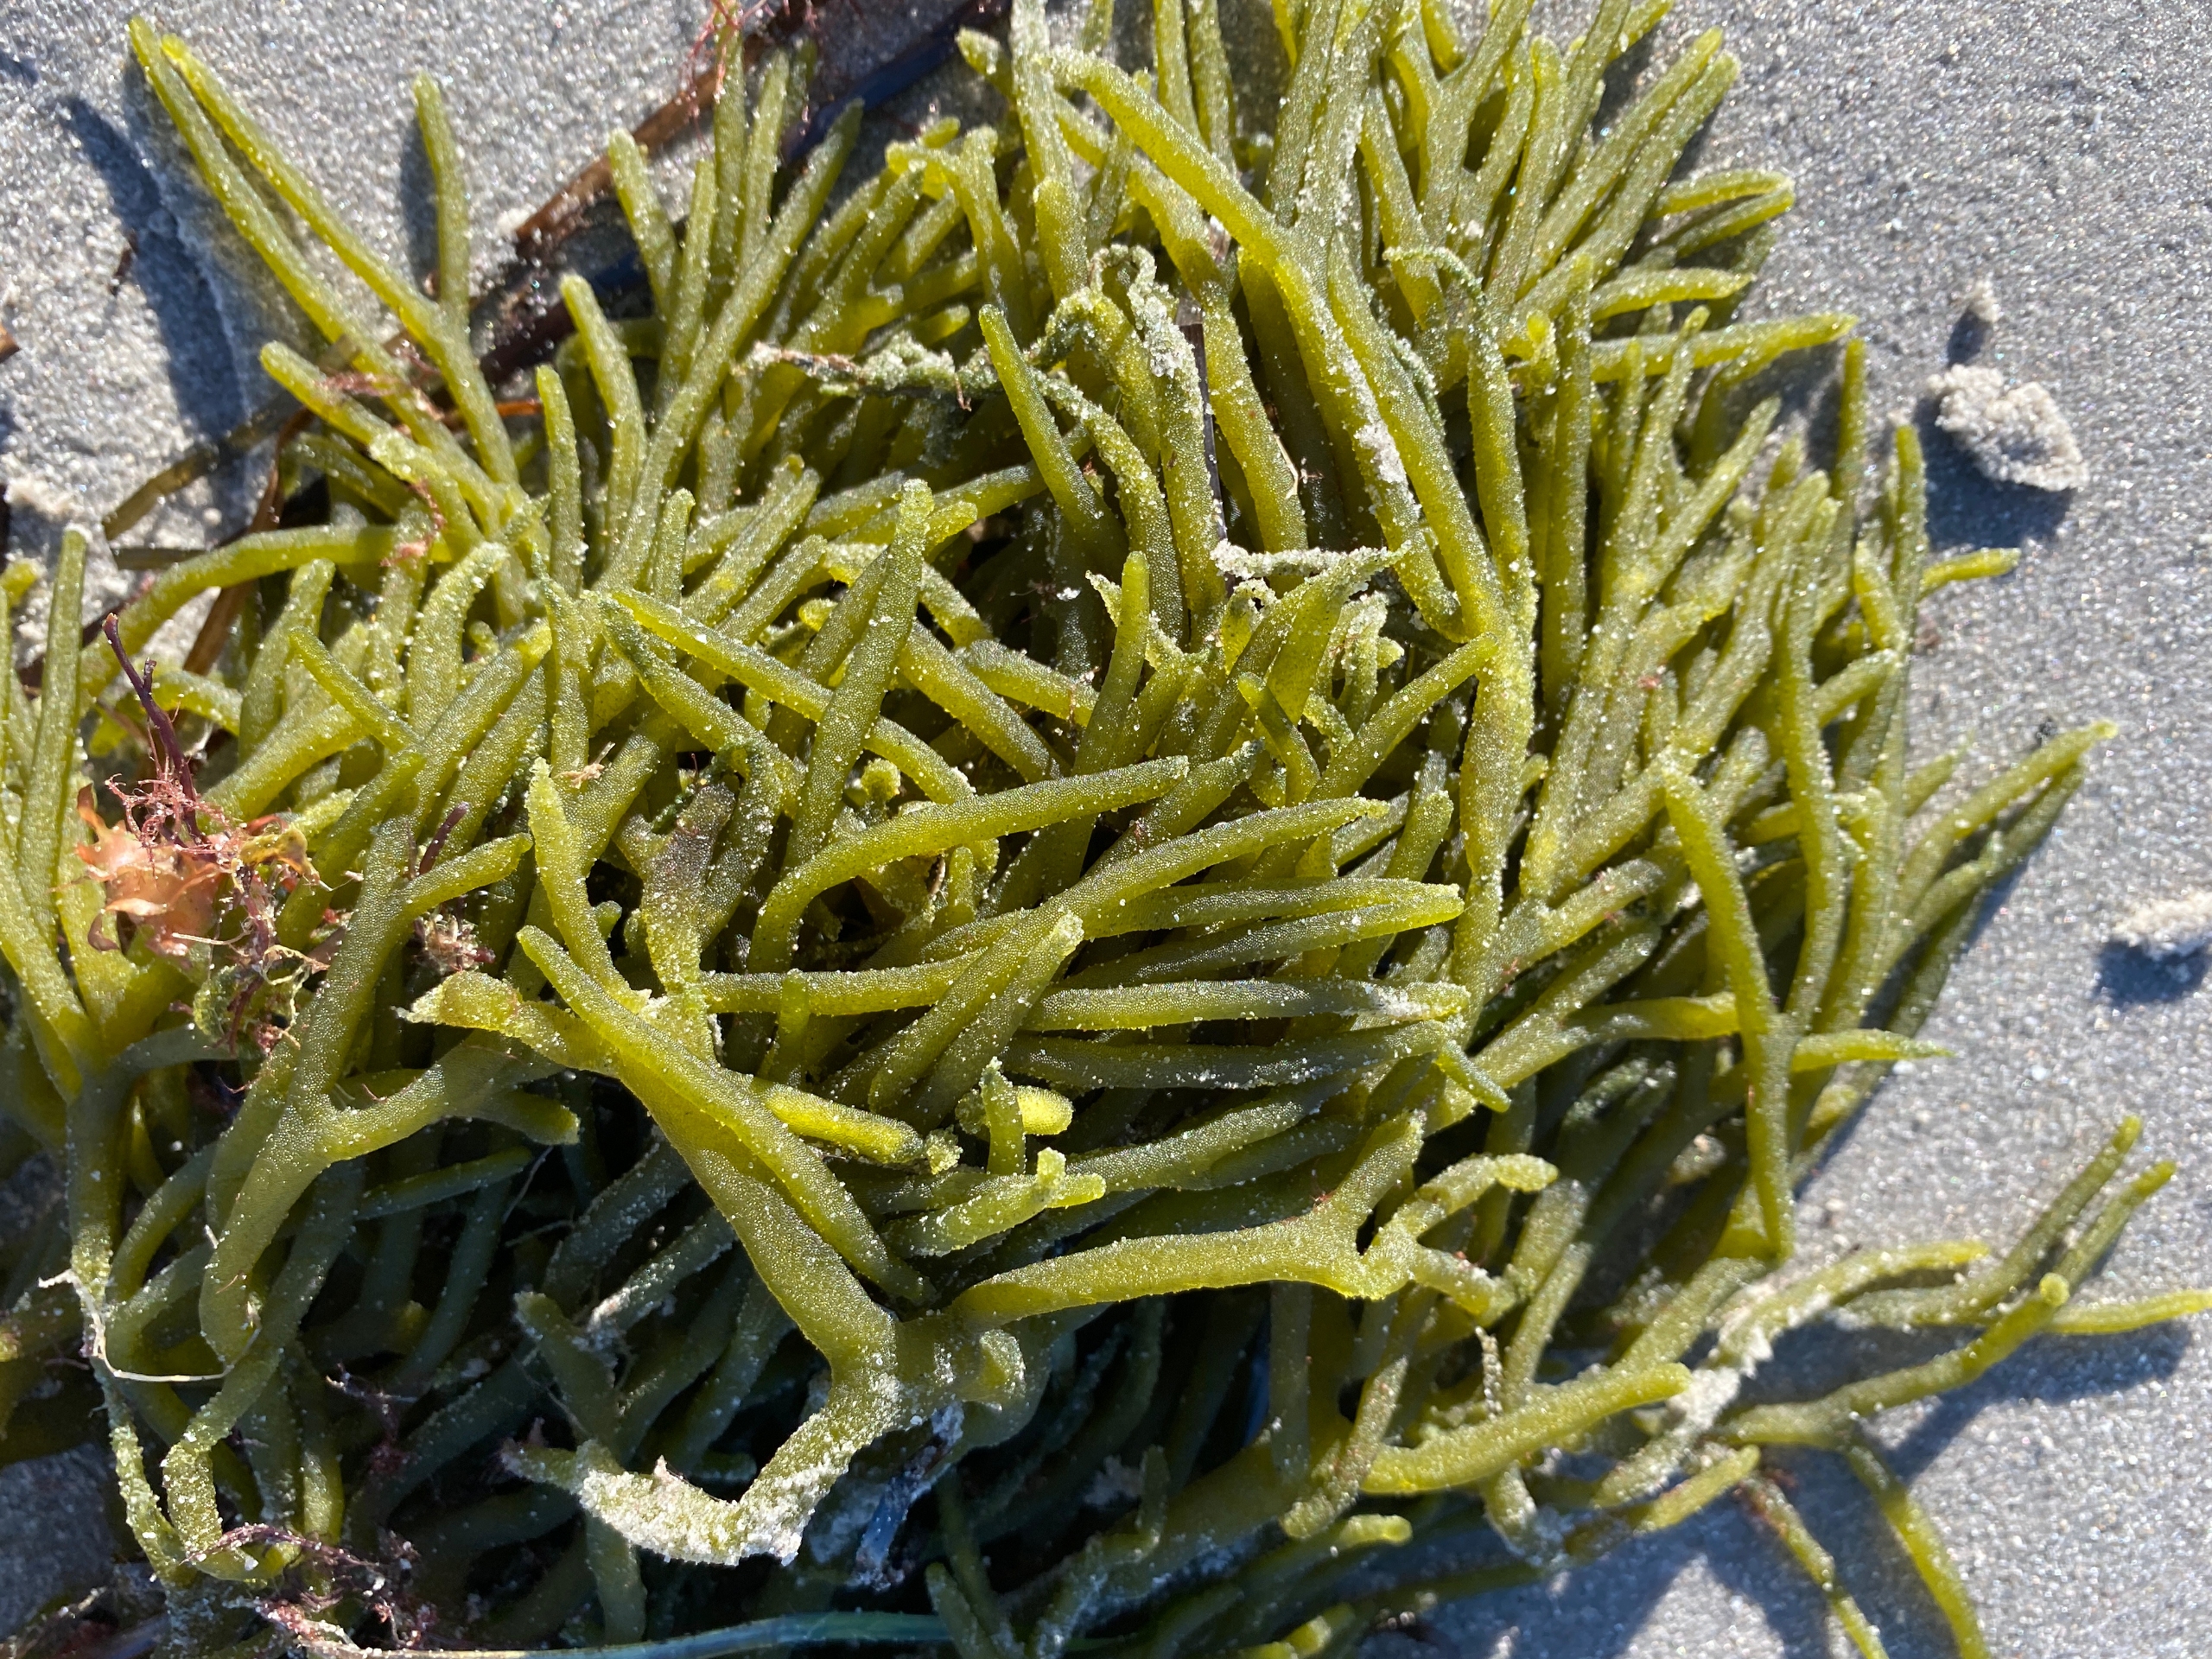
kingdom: Plantae
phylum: Chlorophyta
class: Ulvophyceae
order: Bryopsidales
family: Codiaceae
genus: Codium
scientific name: Codium fragile
